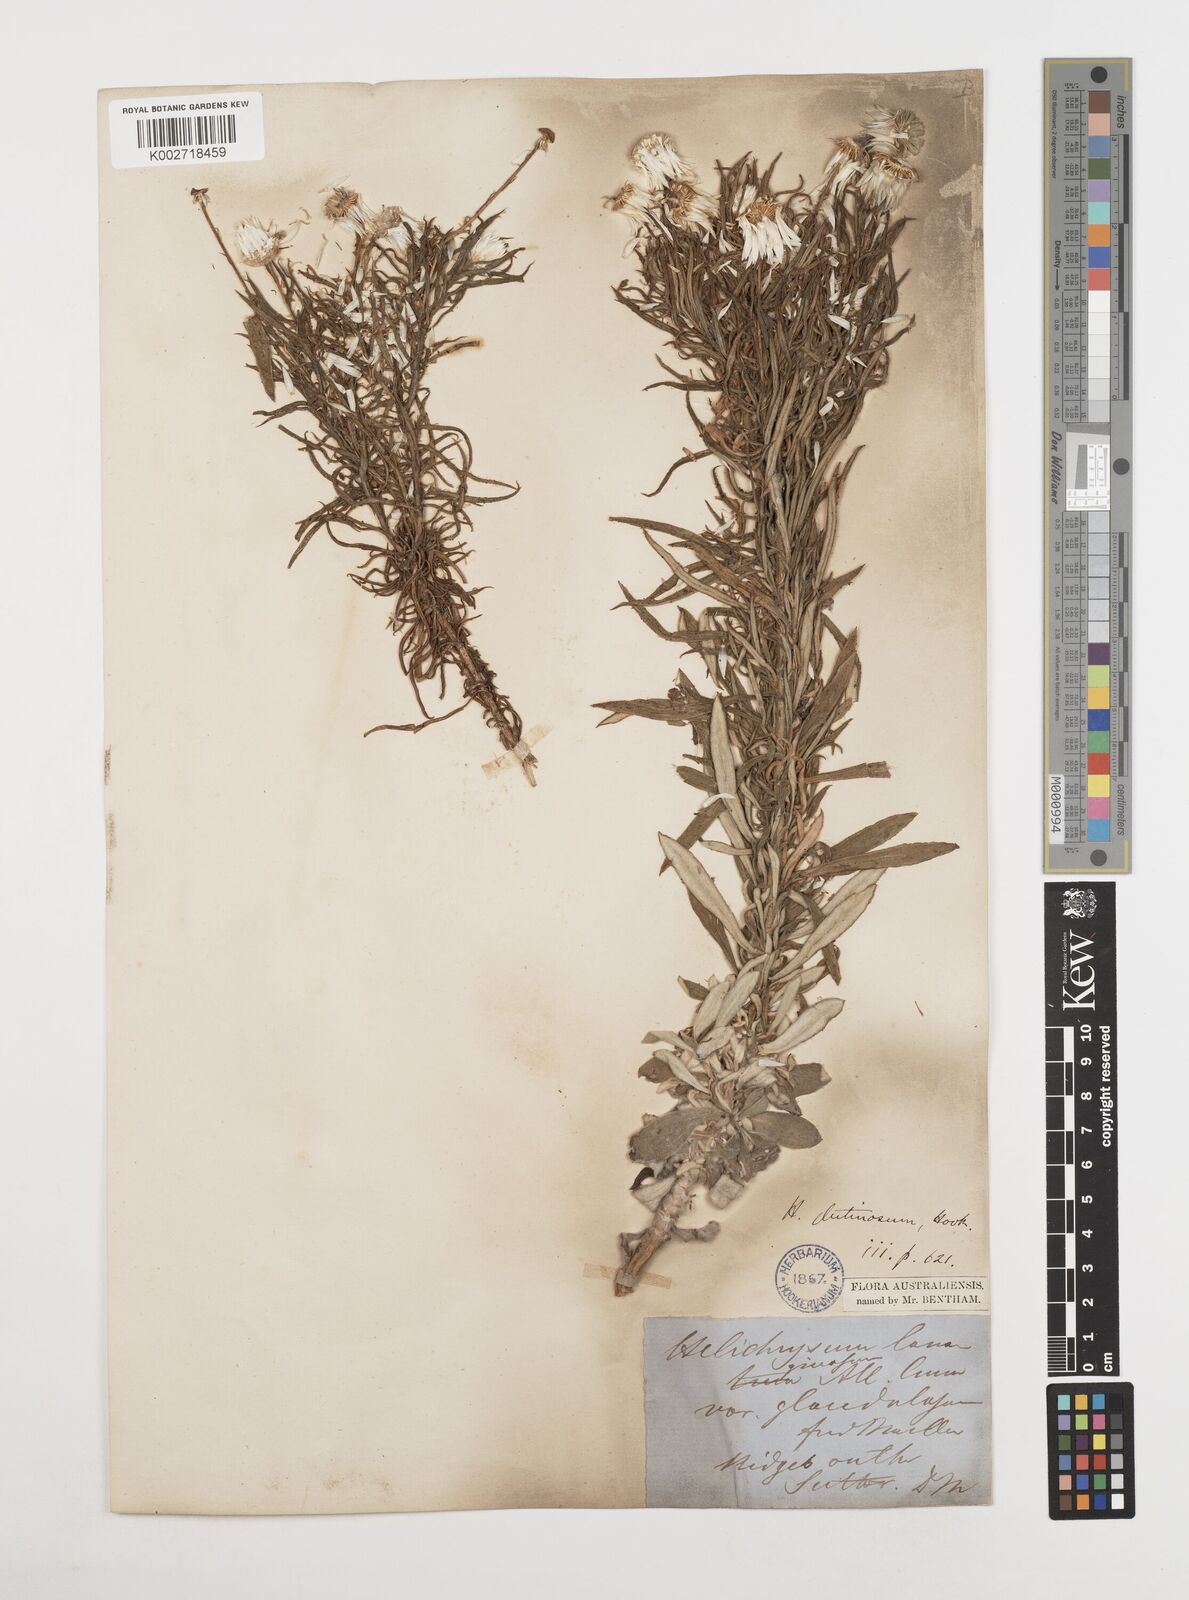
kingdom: Plantae
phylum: Tracheophyta
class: Magnoliopsida
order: Asterales
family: Asteraceae
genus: Coronidium
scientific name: Coronidium glutinosum
